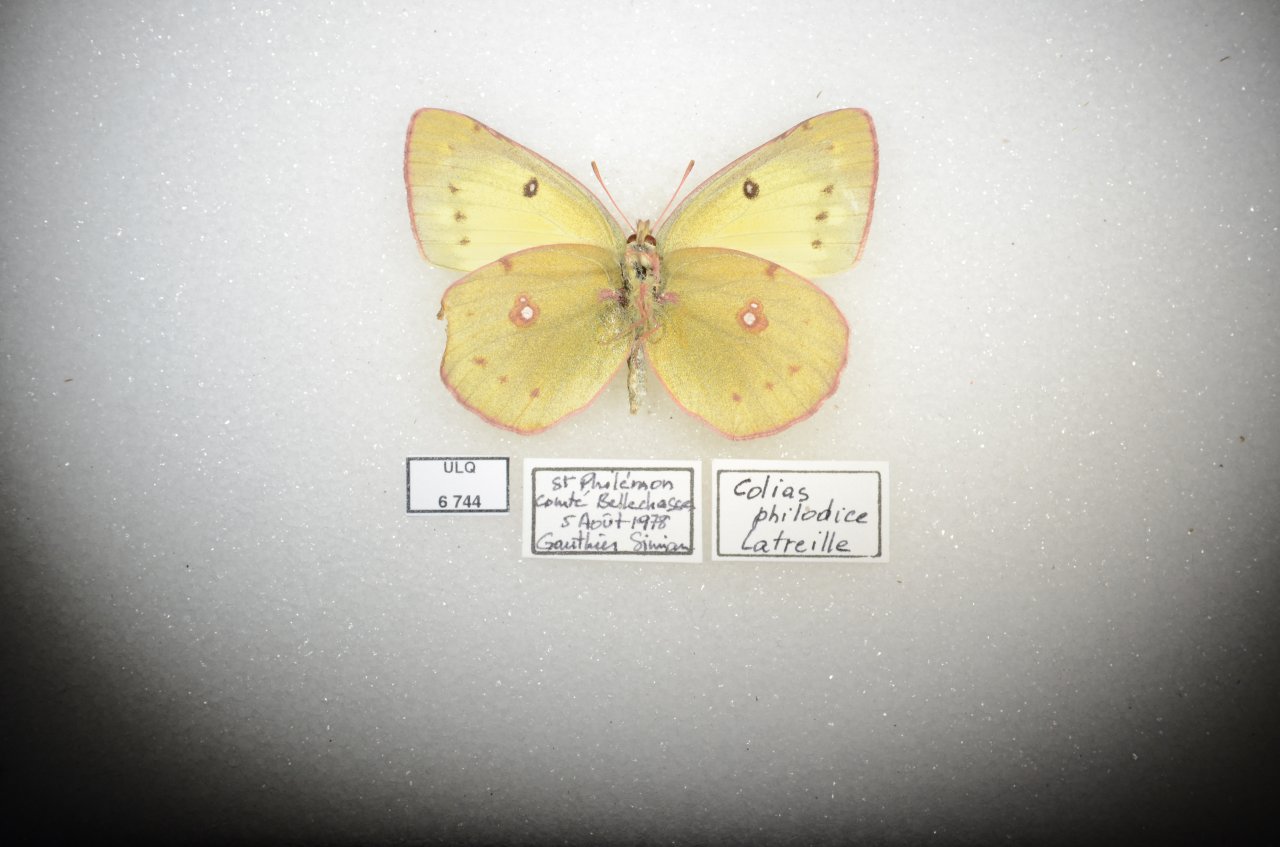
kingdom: Animalia
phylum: Arthropoda
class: Insecta
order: Lepidoptera
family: Pieridae
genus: Colias
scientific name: Colias philodice
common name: Clouded Sulphur
